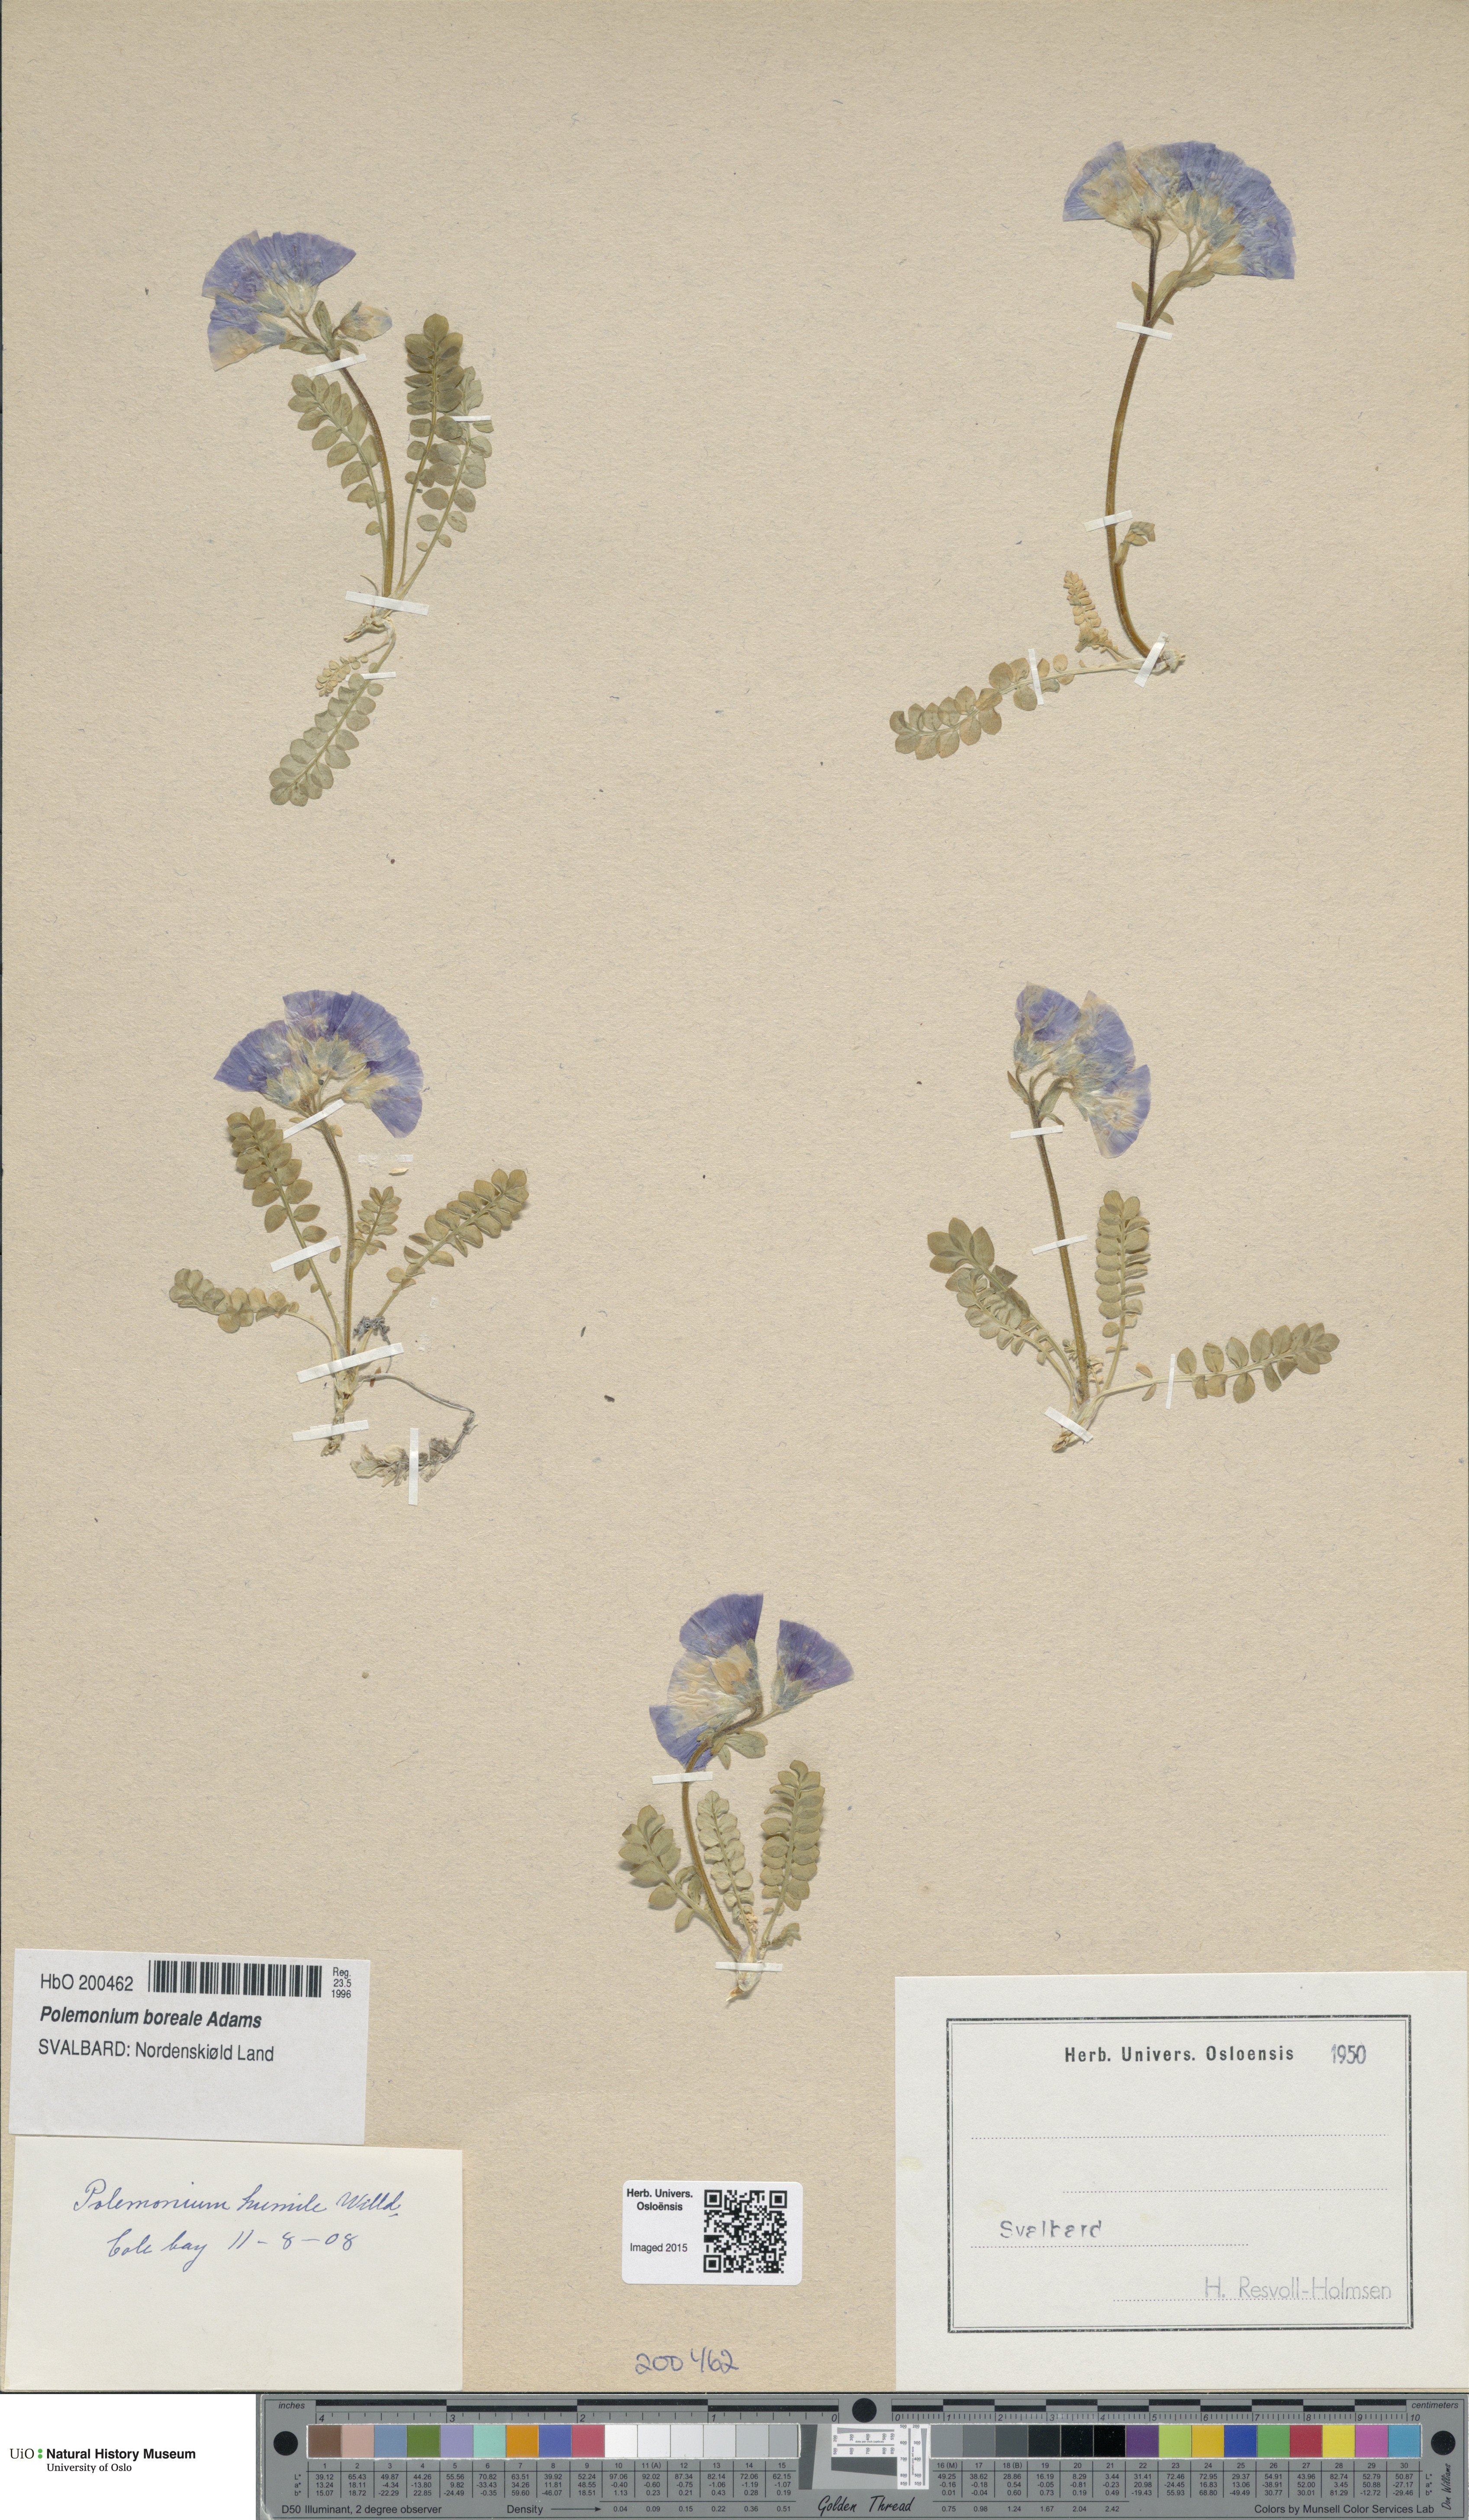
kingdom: Plantae
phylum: Tracheophyta
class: Magnoliopsida
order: Ericales
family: Polemoniaceae
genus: Polemonium
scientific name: Polemonium boreale
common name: Boreal jacob's-ladder
